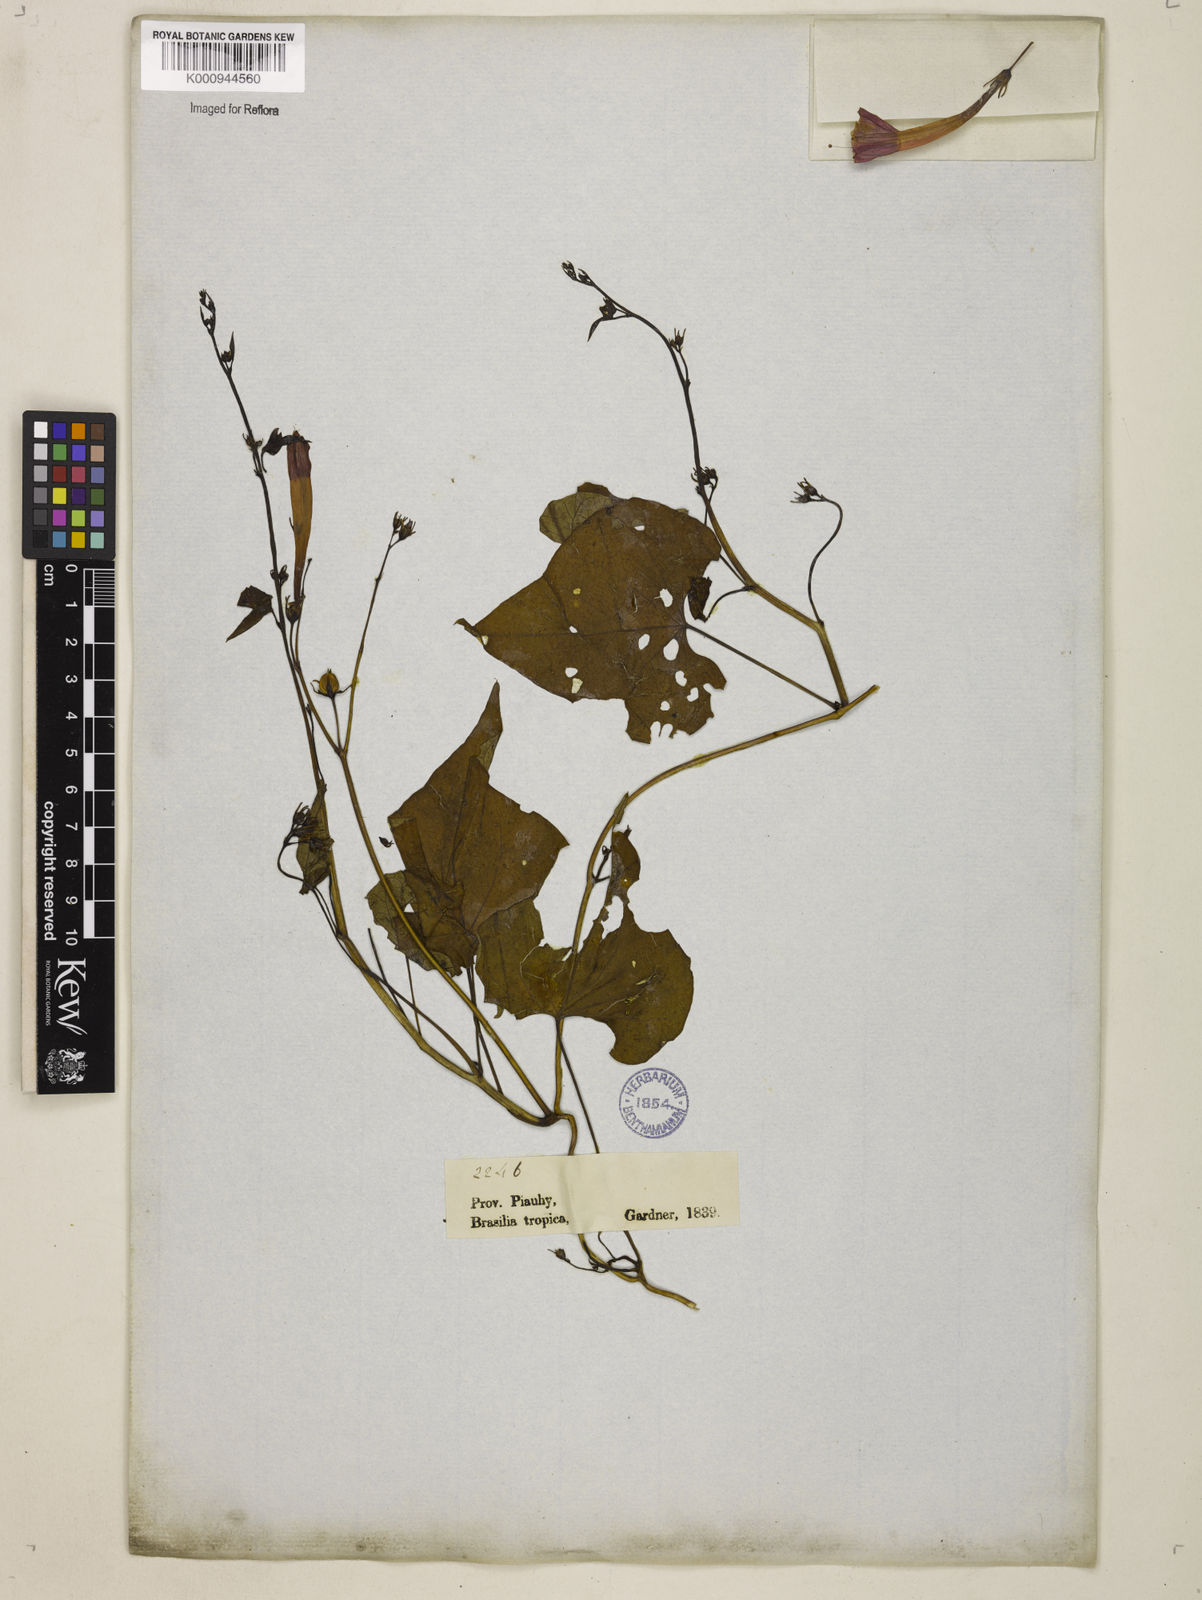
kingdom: Plantae
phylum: Tracheophyta
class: Magnoliopsida
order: Solanales
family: Convolvulaceae
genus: Ipomoea
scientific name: Ipomoea hederifolia
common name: Ivy-leaf morning-glory
